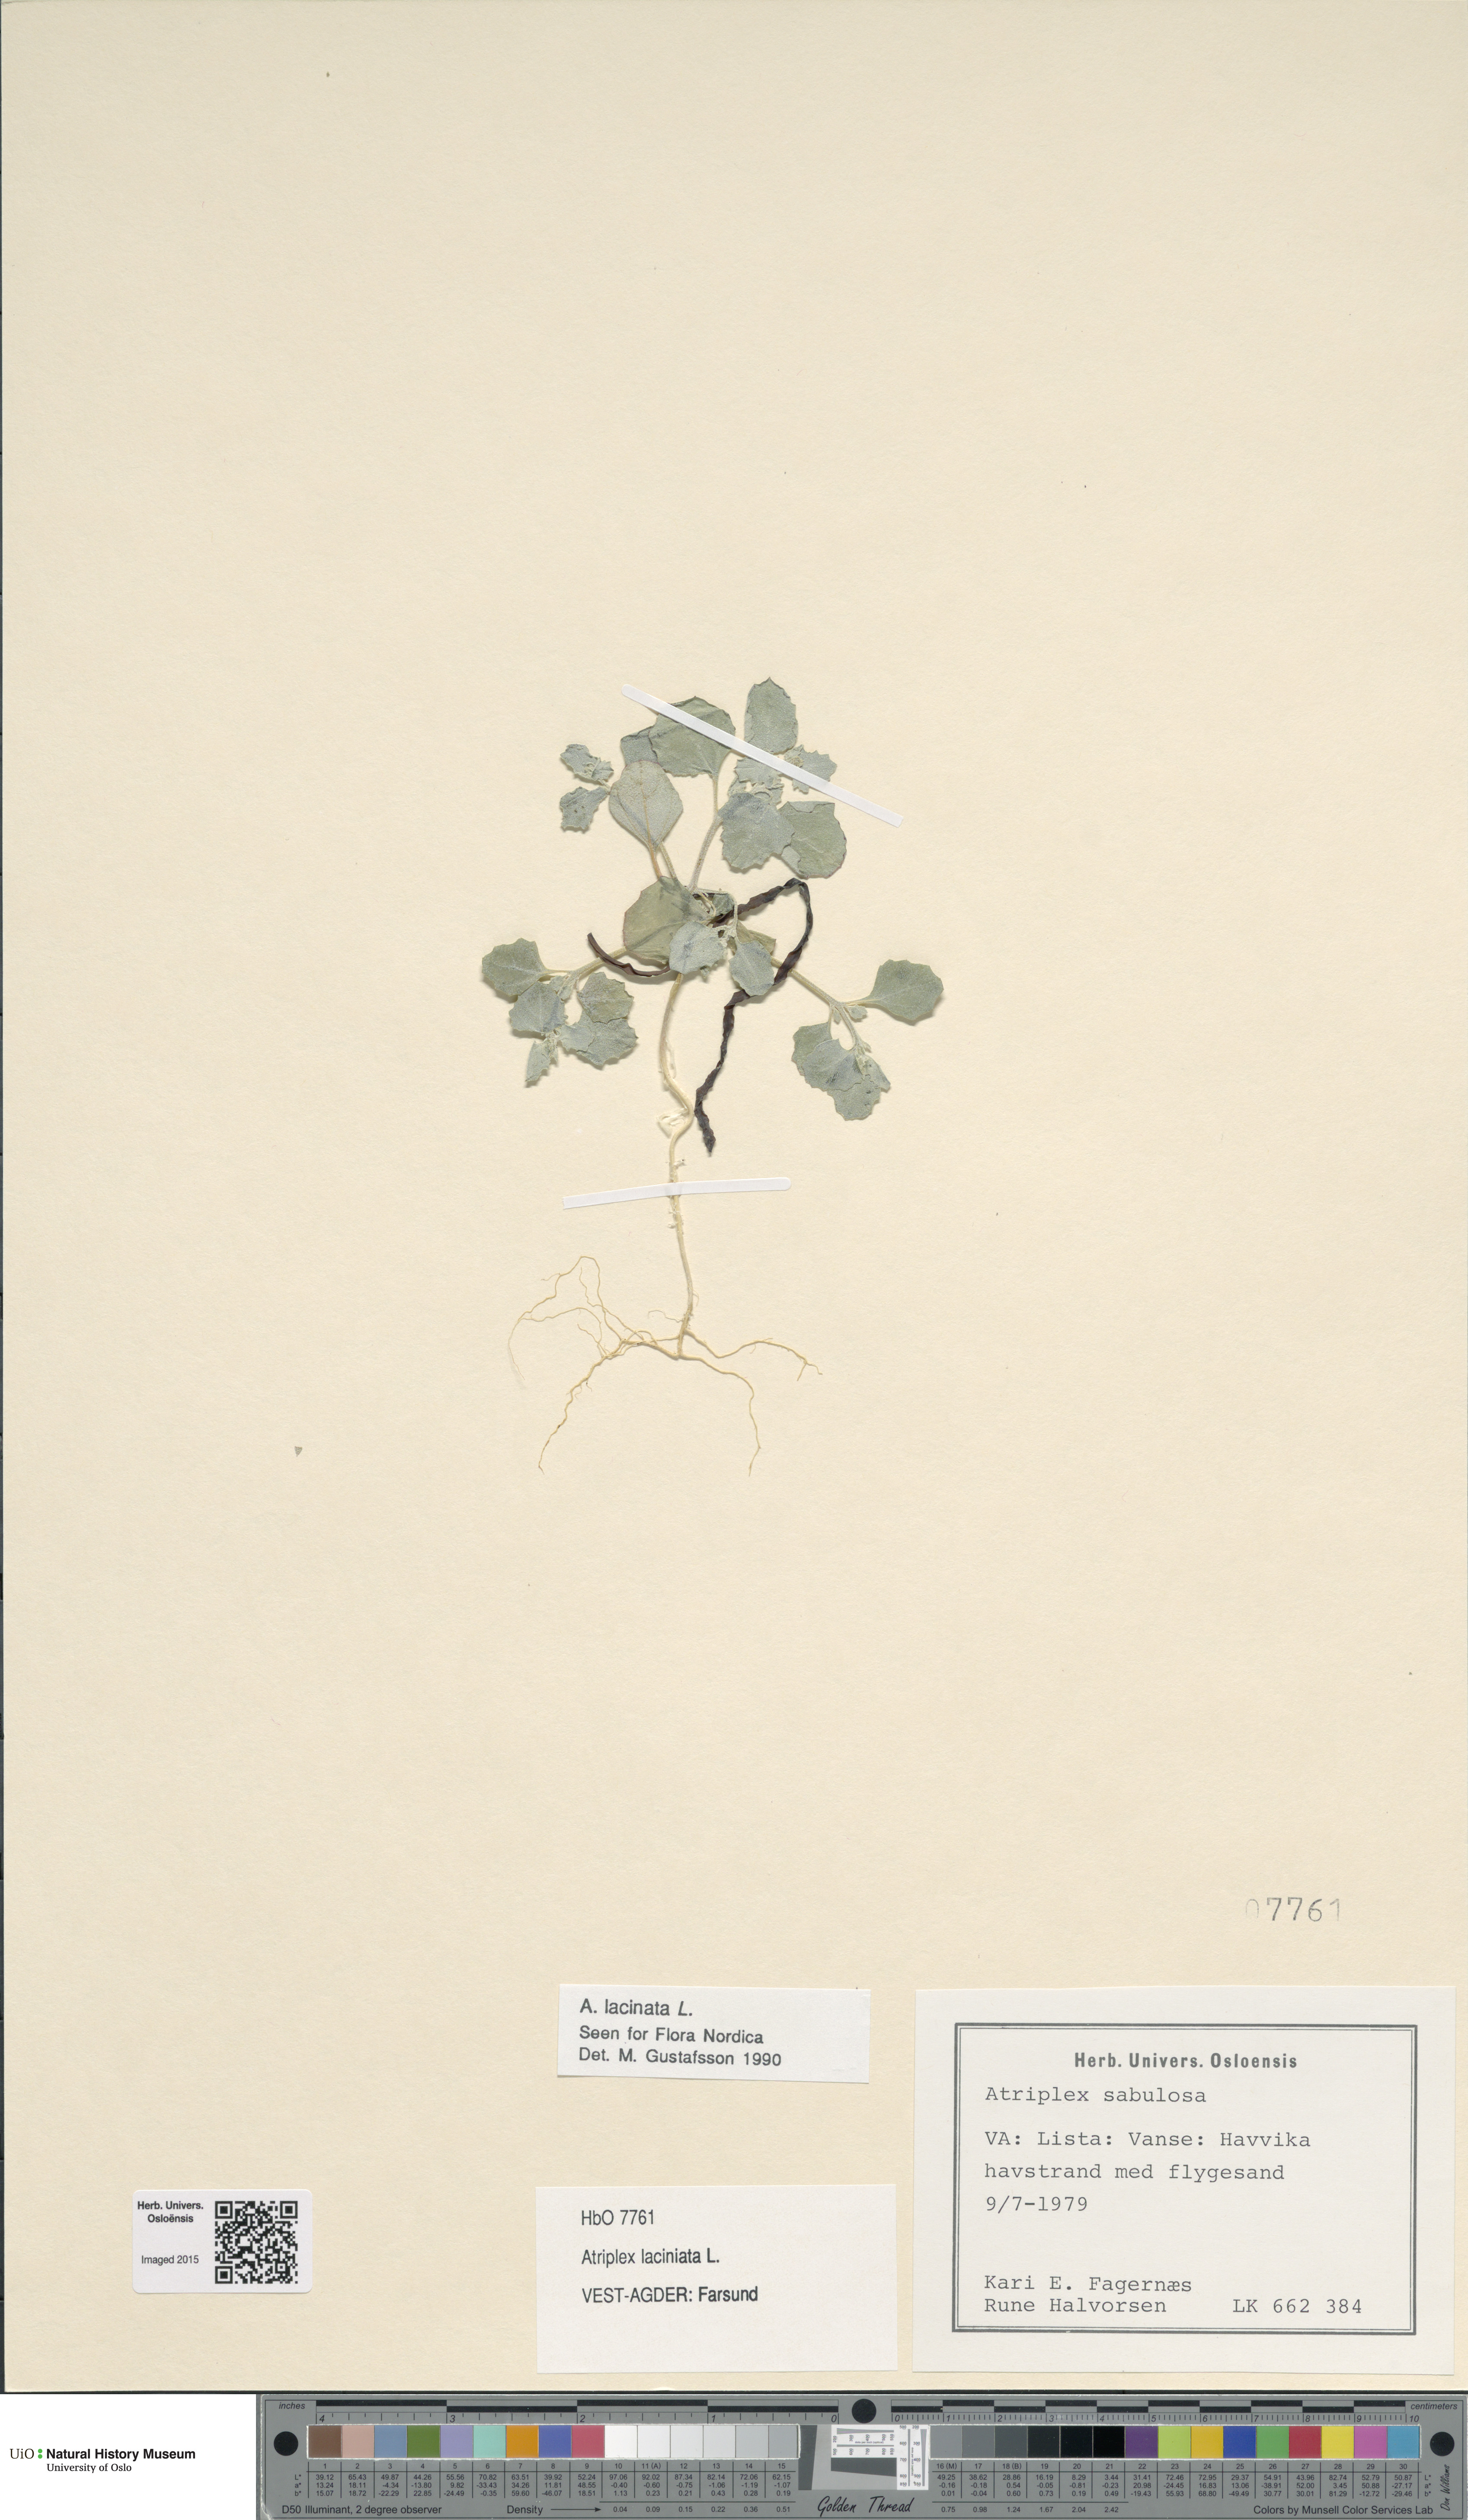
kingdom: Plantae
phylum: Tracheophyta
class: Magnoliopsida
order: Caryophyllales
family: Amaranthaceae
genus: Atriplex
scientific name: Atriplex laciniata
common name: Frosted orache
